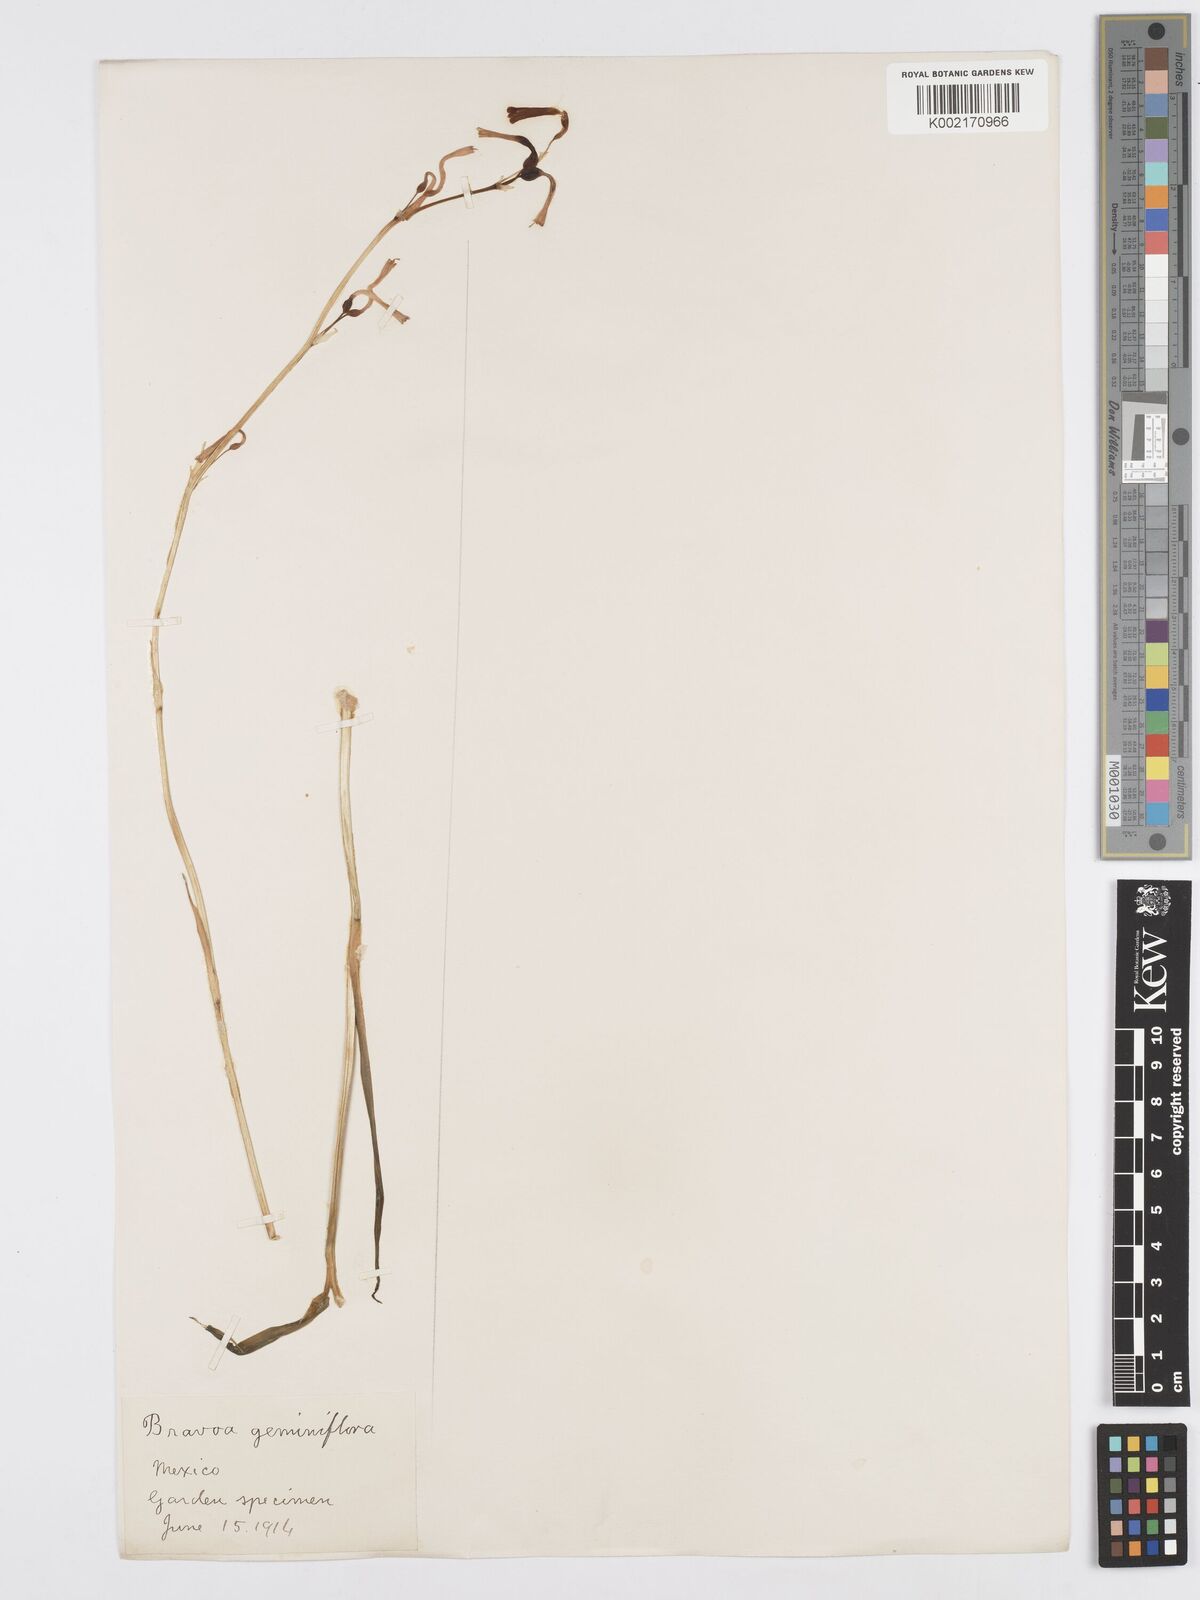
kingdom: Plantae
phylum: Tracheophyta
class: Liliopsida
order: Asparagales
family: Asparagaceae
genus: Agave
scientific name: Agave coetocapnia
